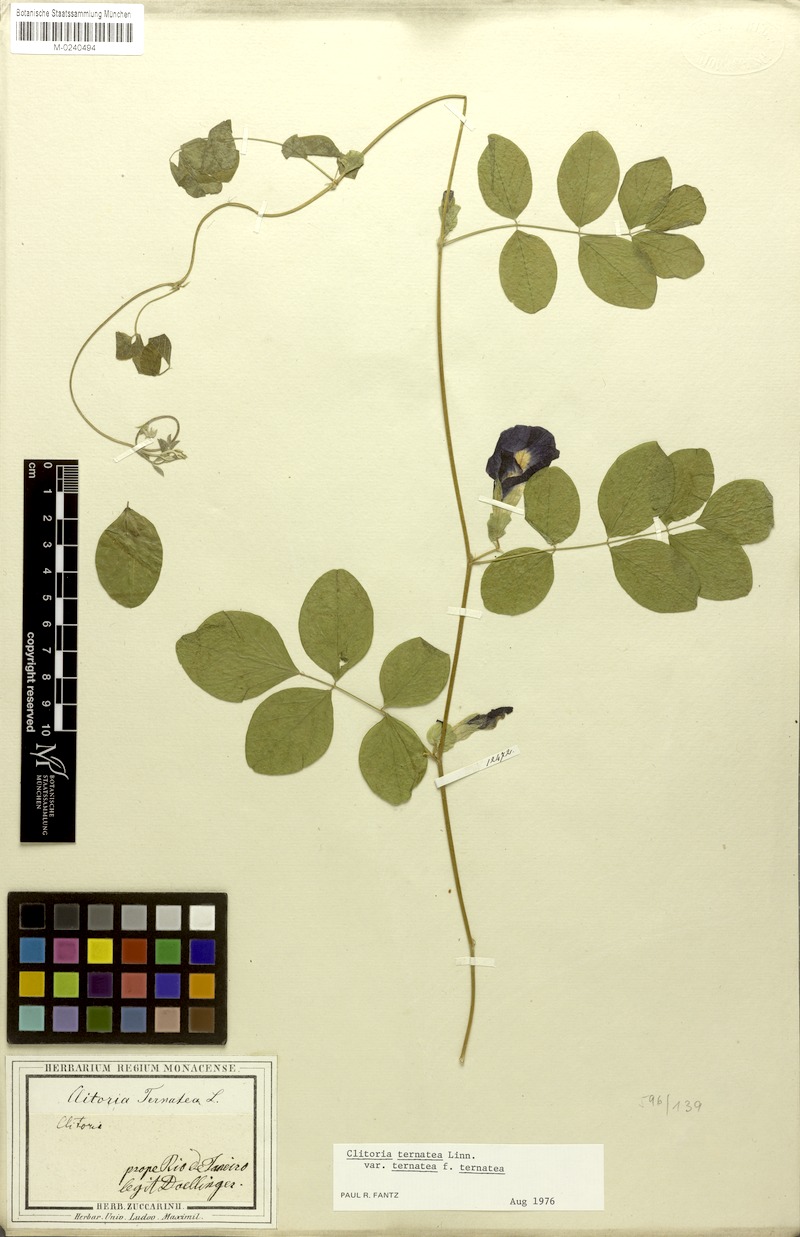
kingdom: Plantae
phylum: Tracheophyta
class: Magnoliopsida
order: Fabales
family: Fabaceae
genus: Clitoria
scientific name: Clitoria ternatea
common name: Asian pigeonwings
